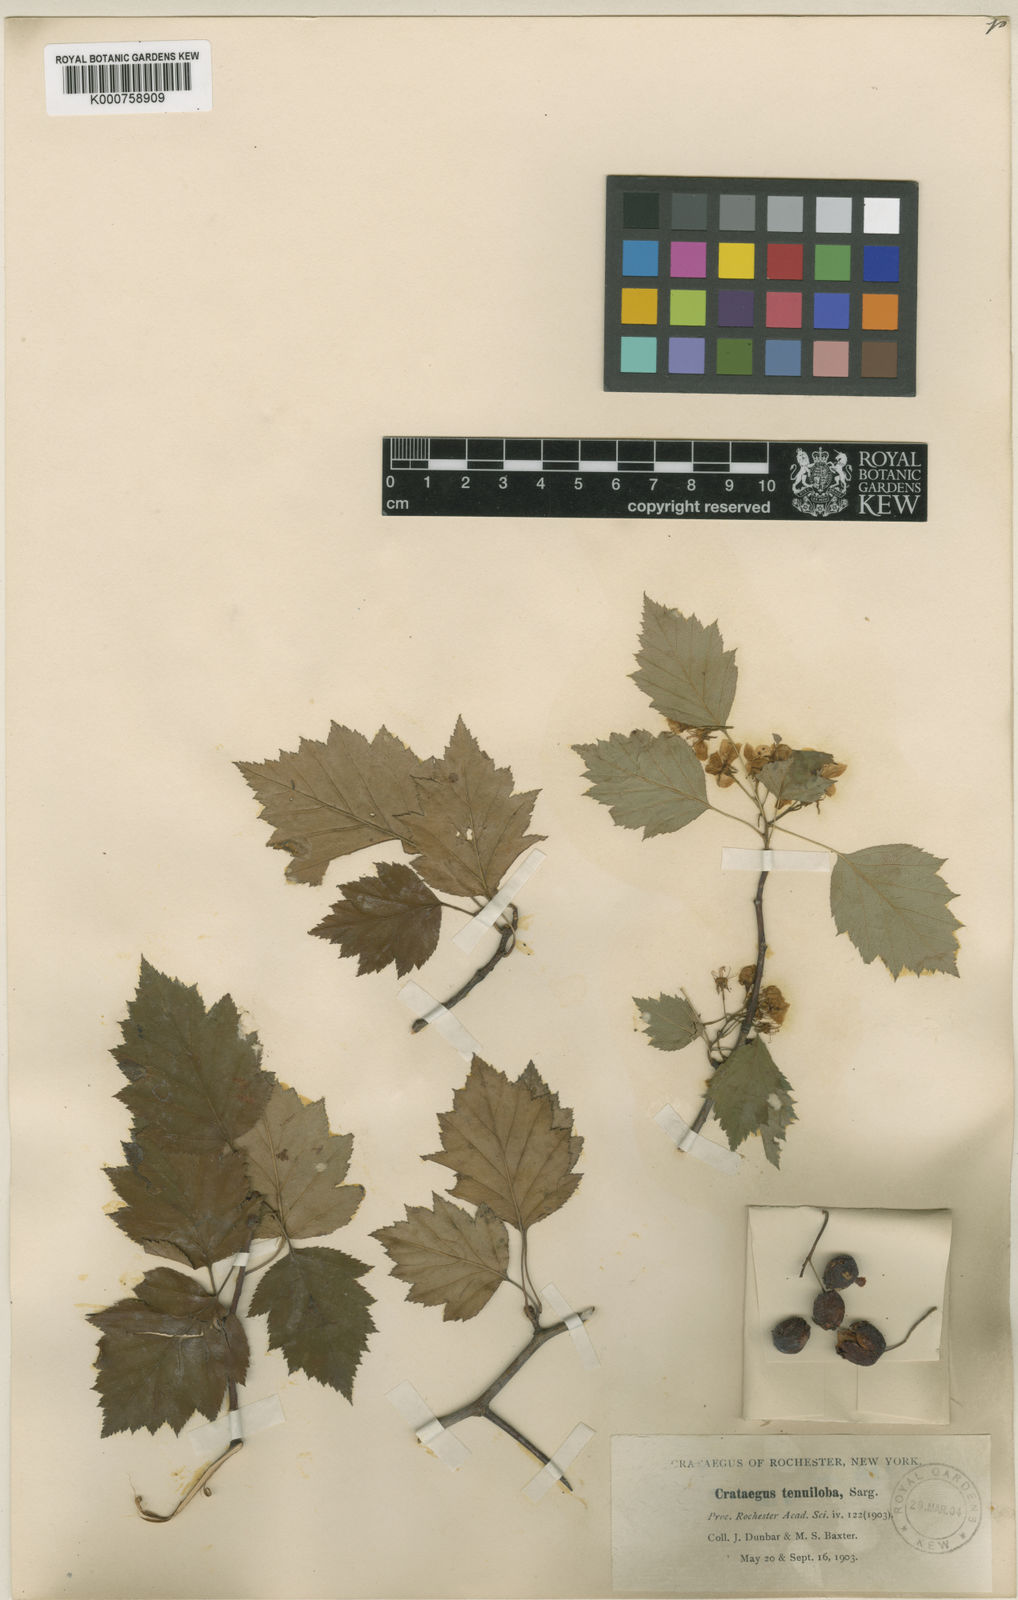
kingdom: Plantae
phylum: Tracheophyta
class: Magnoliopsida
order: Rosales
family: Rosaceae
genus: Crataegus
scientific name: Crataegus tenuiloba
